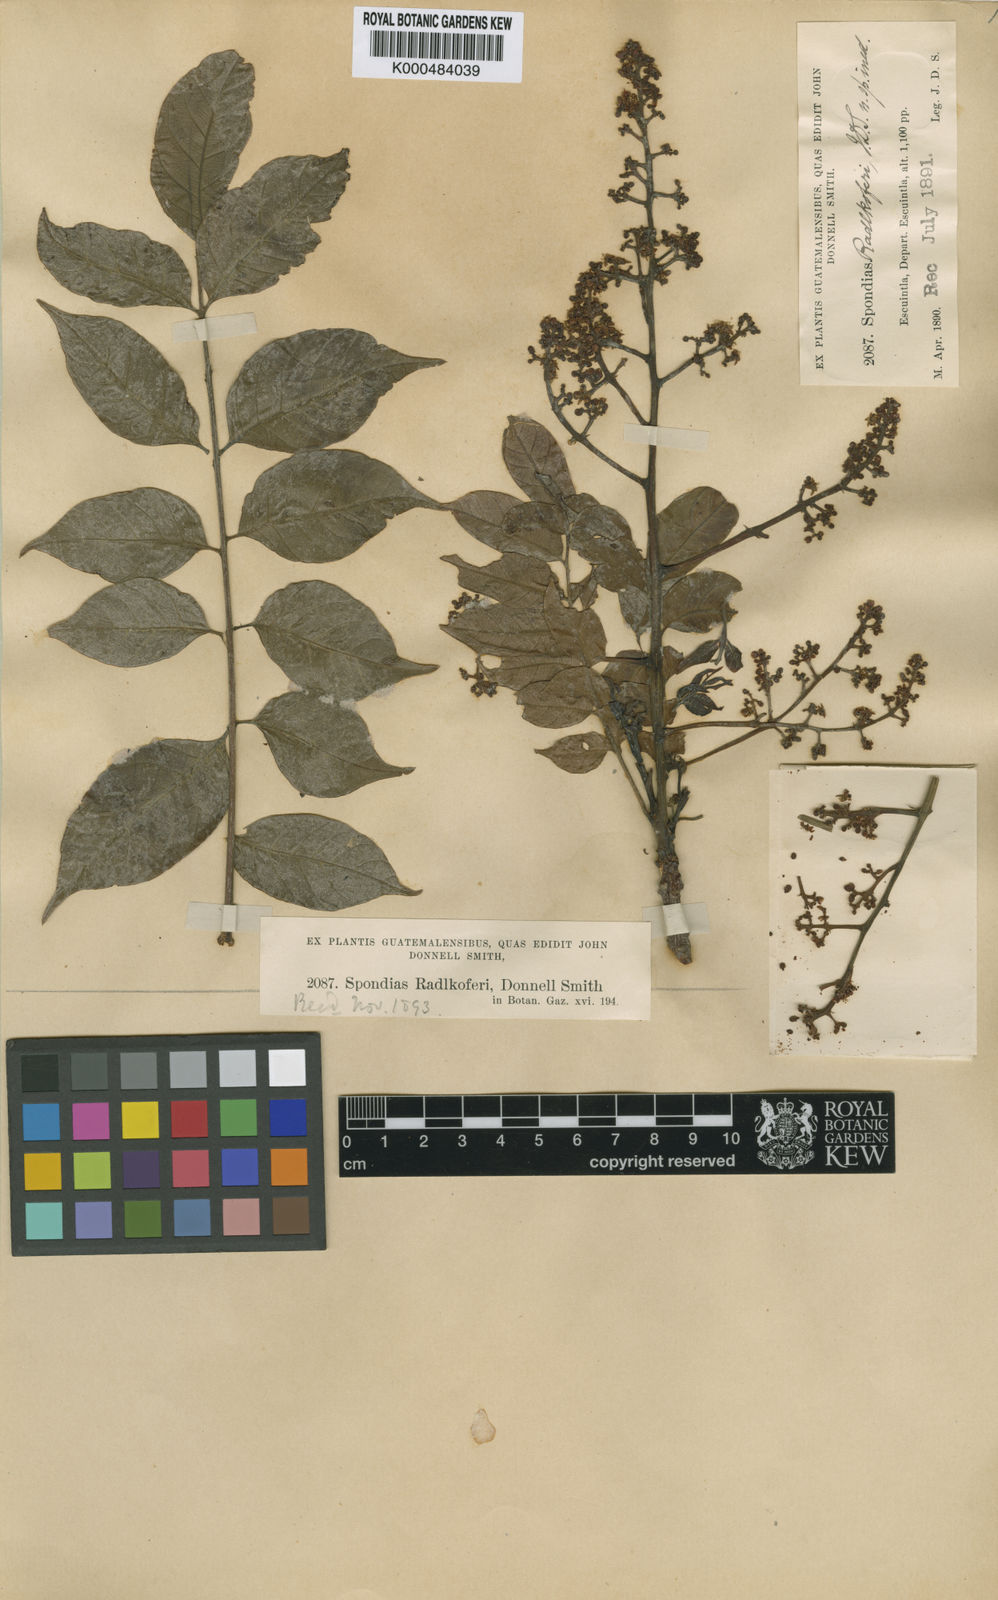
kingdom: Plantae
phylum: Tracheophyta
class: Magnoliopsida
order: Sapindales
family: Anacardiaceae
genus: Spondias
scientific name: Spondias radlkoferi
